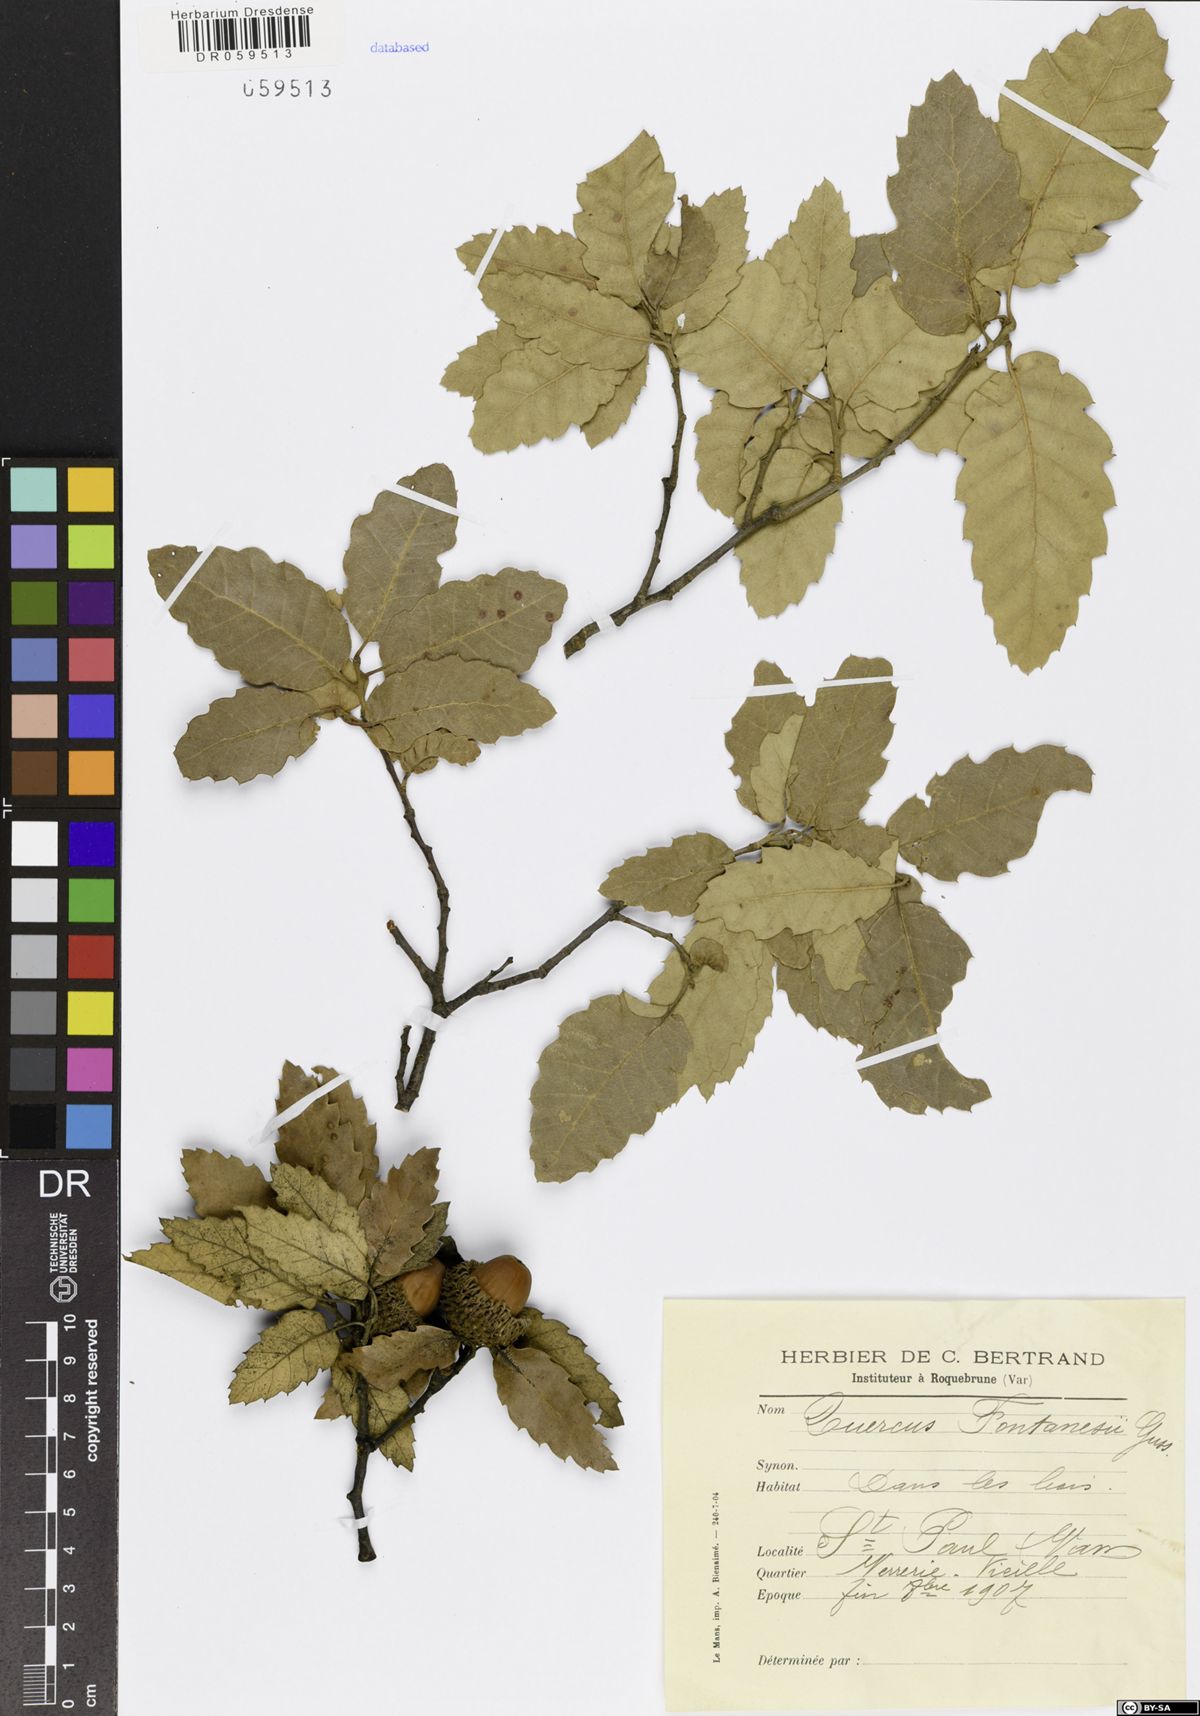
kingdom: Plantae
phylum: Tracheophyta
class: Magnoliopsida
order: Fagales
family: Fagaceae
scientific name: Fagaceae
